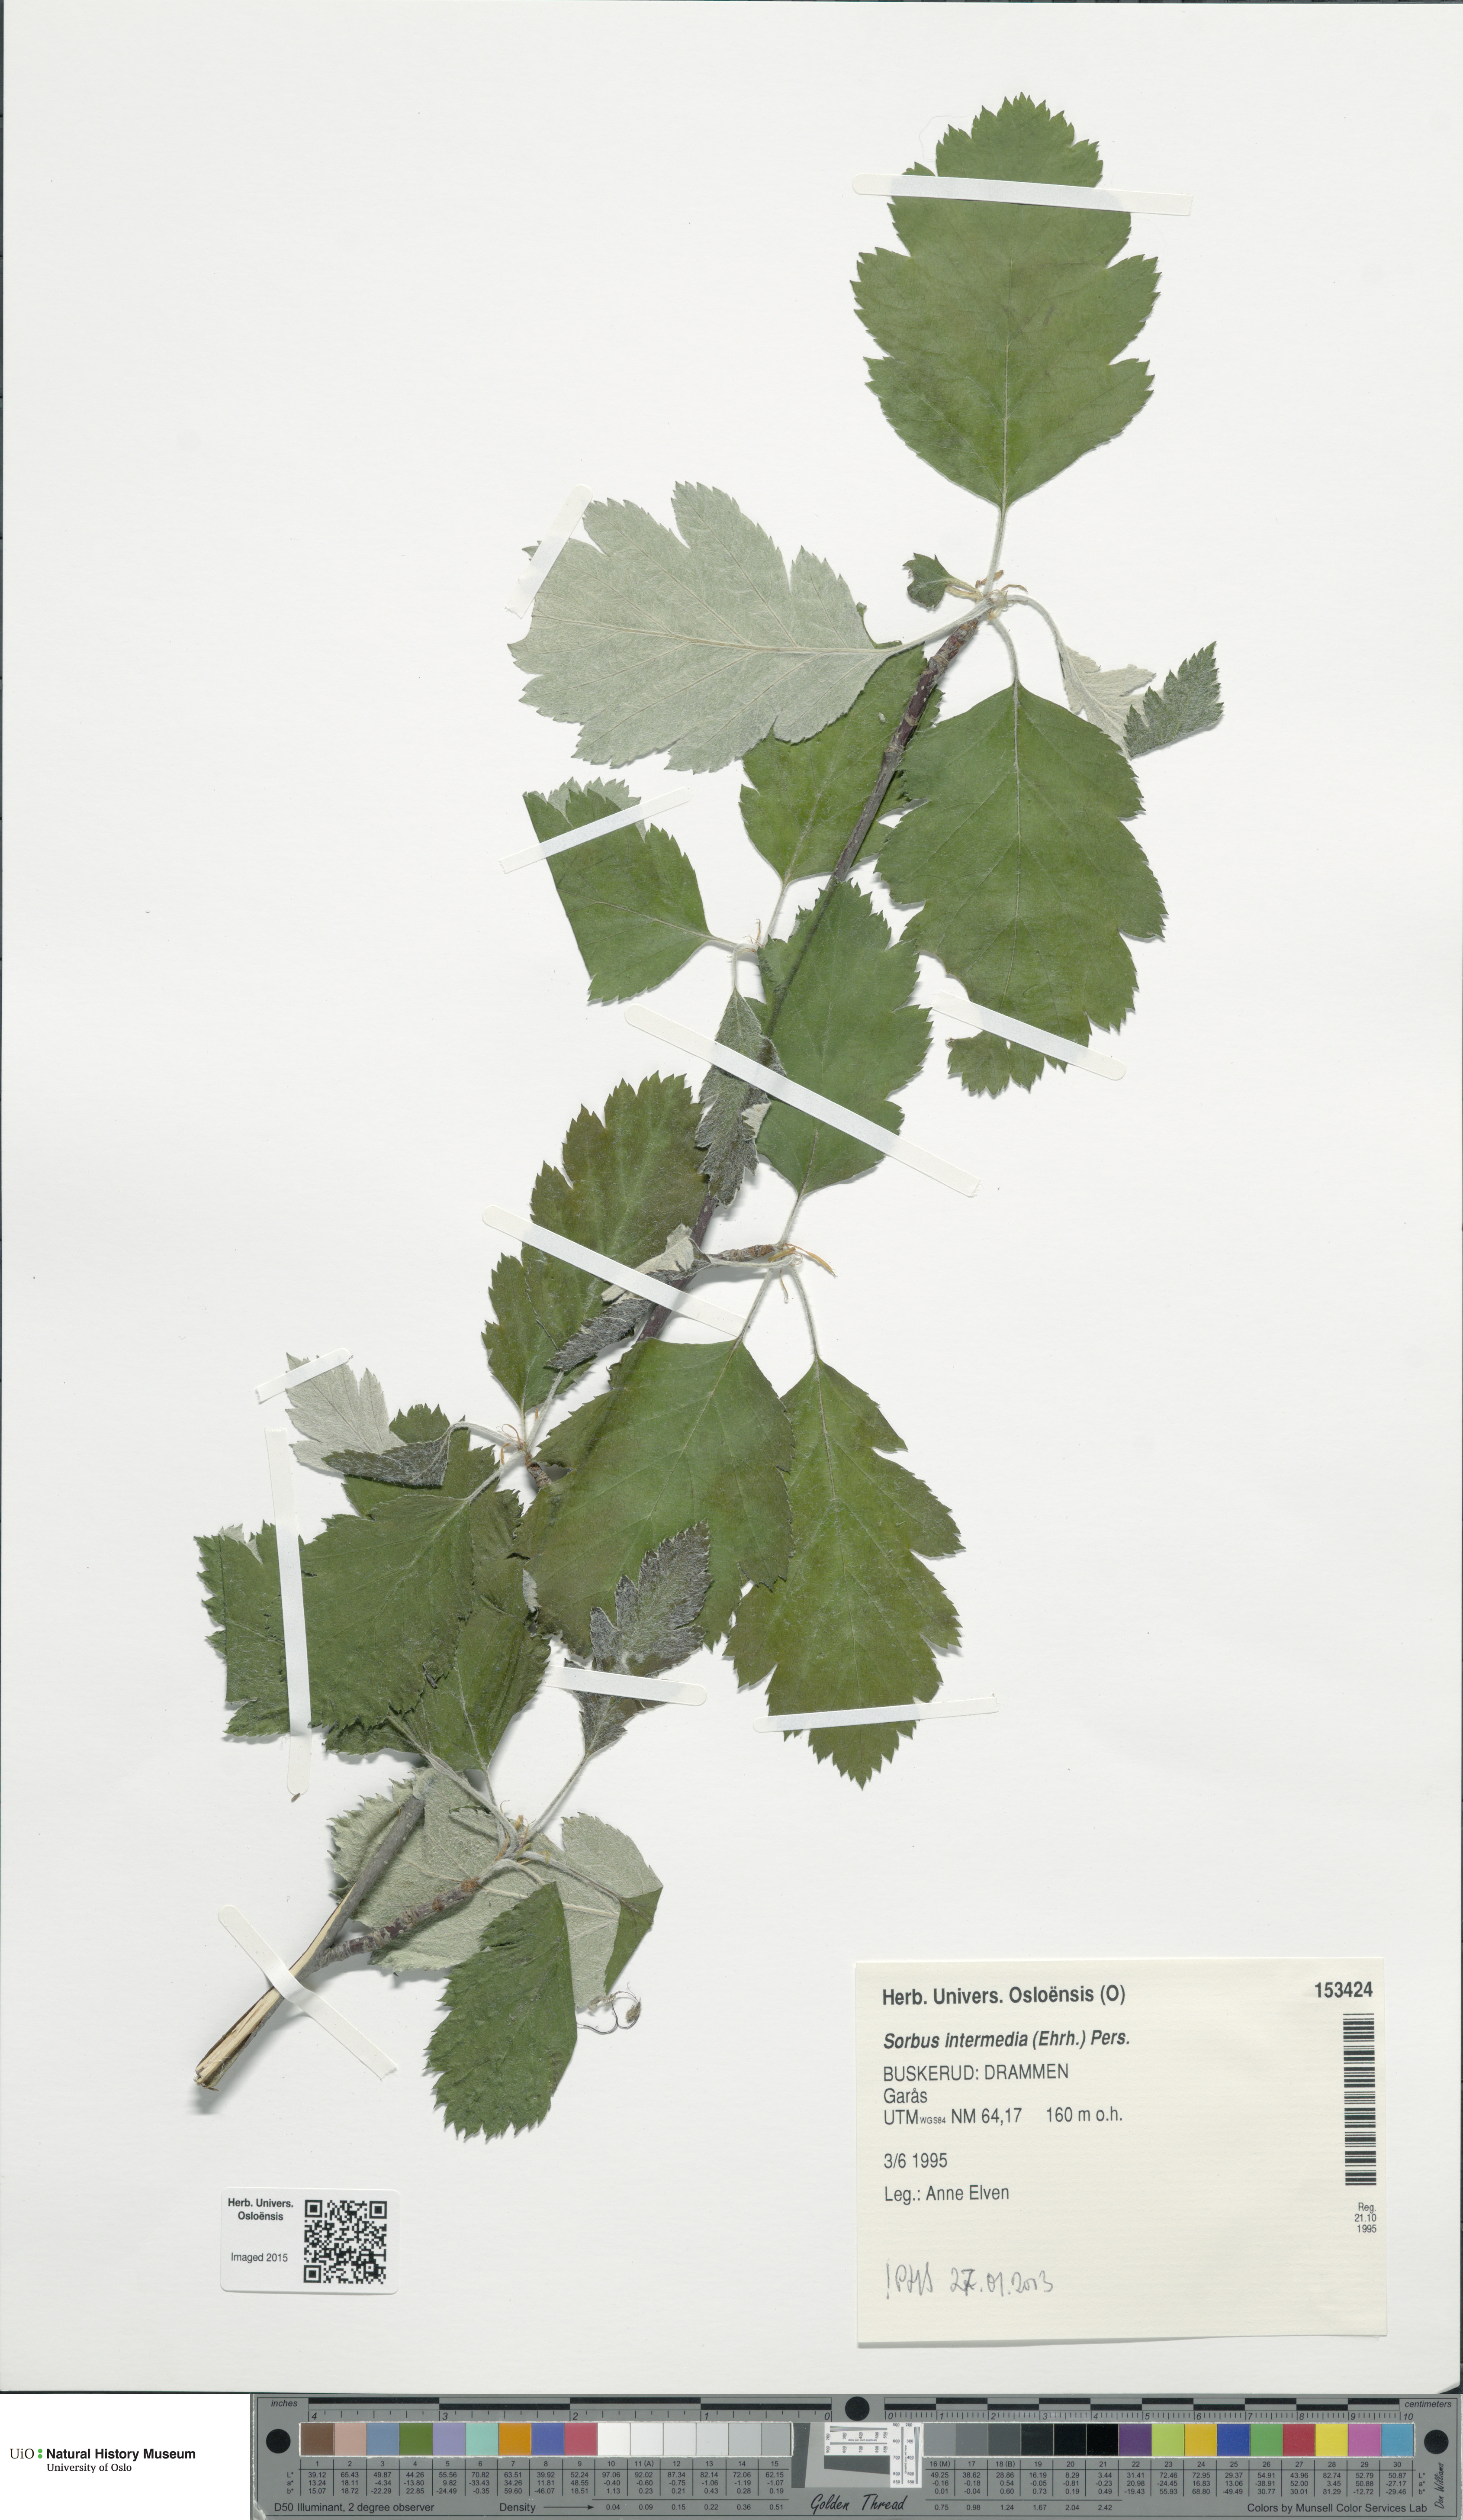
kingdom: Plantae
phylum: Tracheophyta
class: Magnoliopsida
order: Rosales
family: Rosaceae
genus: Scandosorbus
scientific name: Scandosorbus intermedia
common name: Swedish whitebeam
